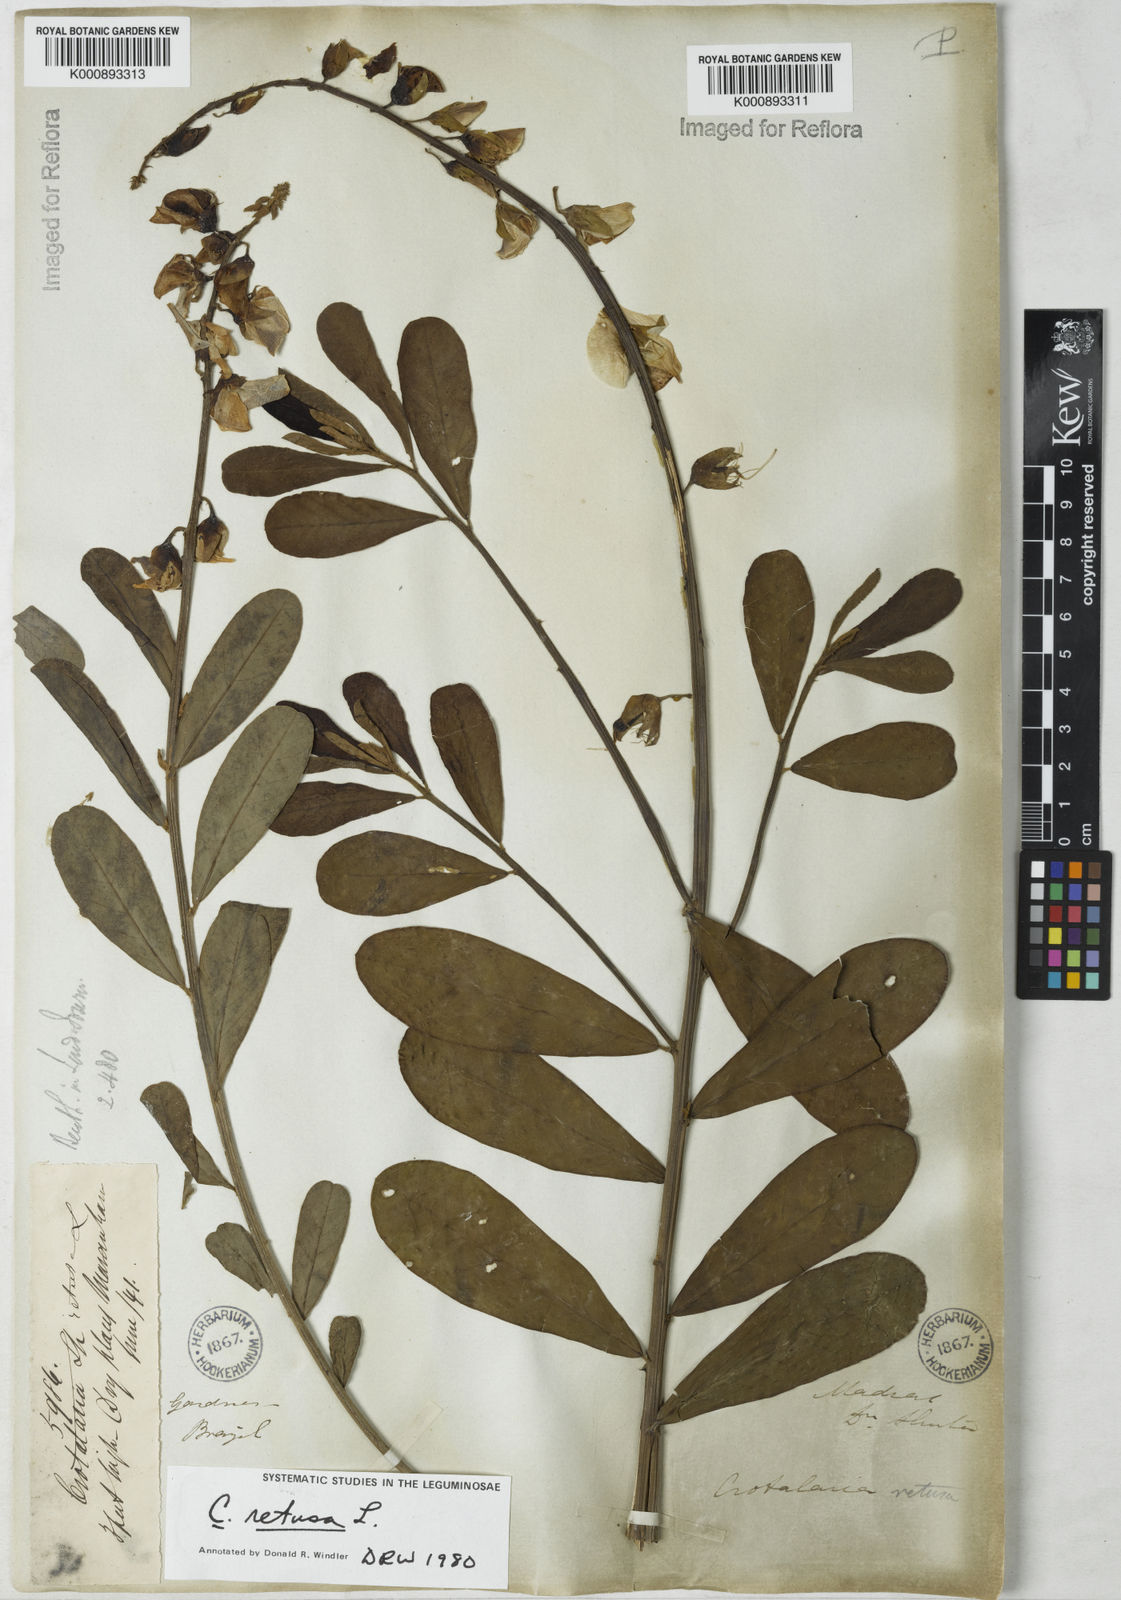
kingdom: Plantae
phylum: Tracheophyta
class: Magnoliopsida
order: Fabales
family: Fabaceae
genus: Crotalaria
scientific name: Crotalaria retusa
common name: Rattleweed
